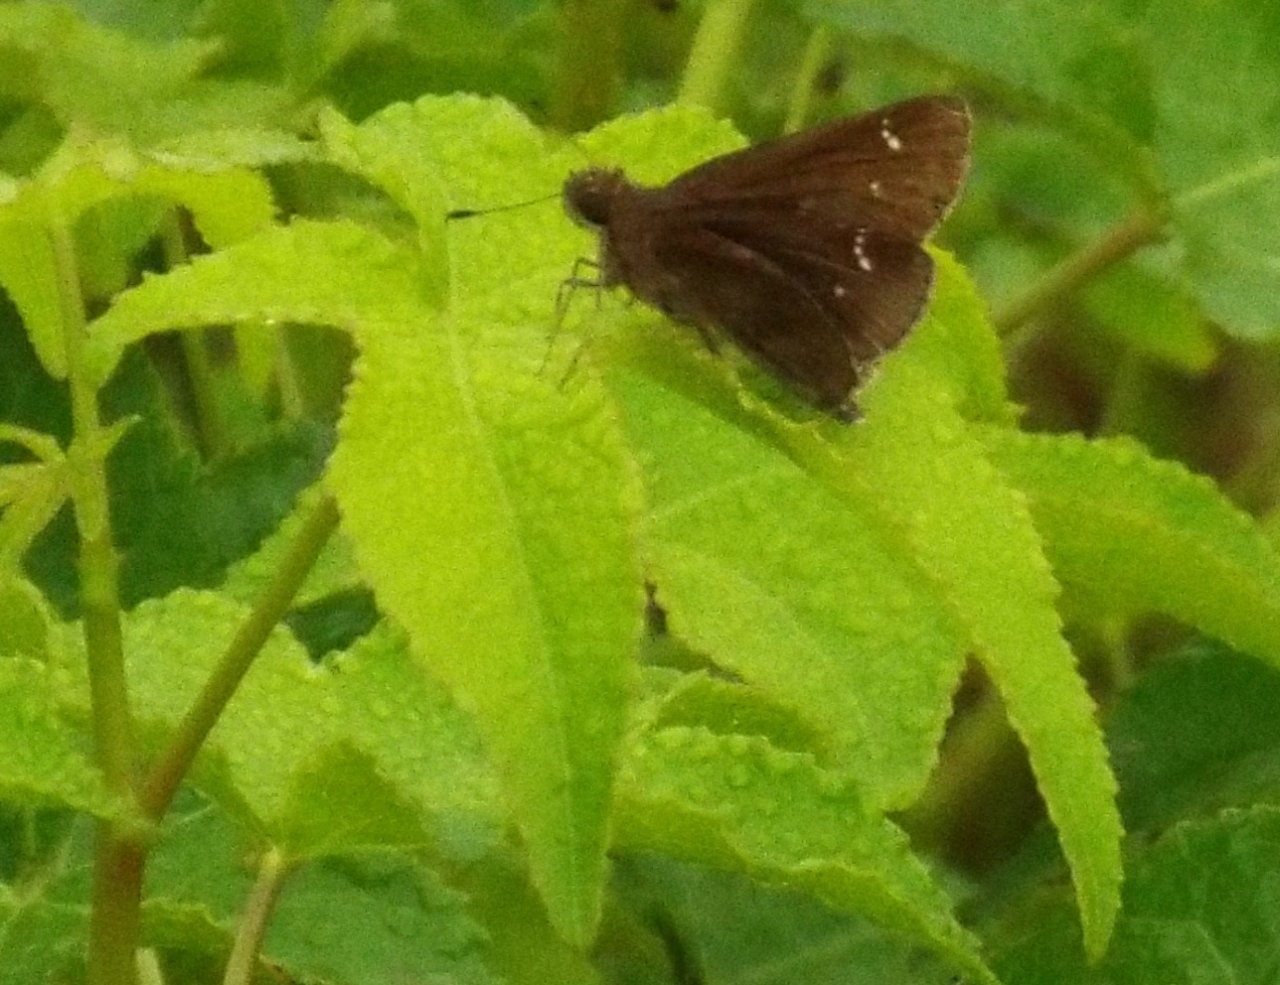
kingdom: Animalia
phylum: Arthropoda
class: Insecta
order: Lepidoptera
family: Hesperiidae
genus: Lerema
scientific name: Lerema accius
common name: Clouded Skipper
